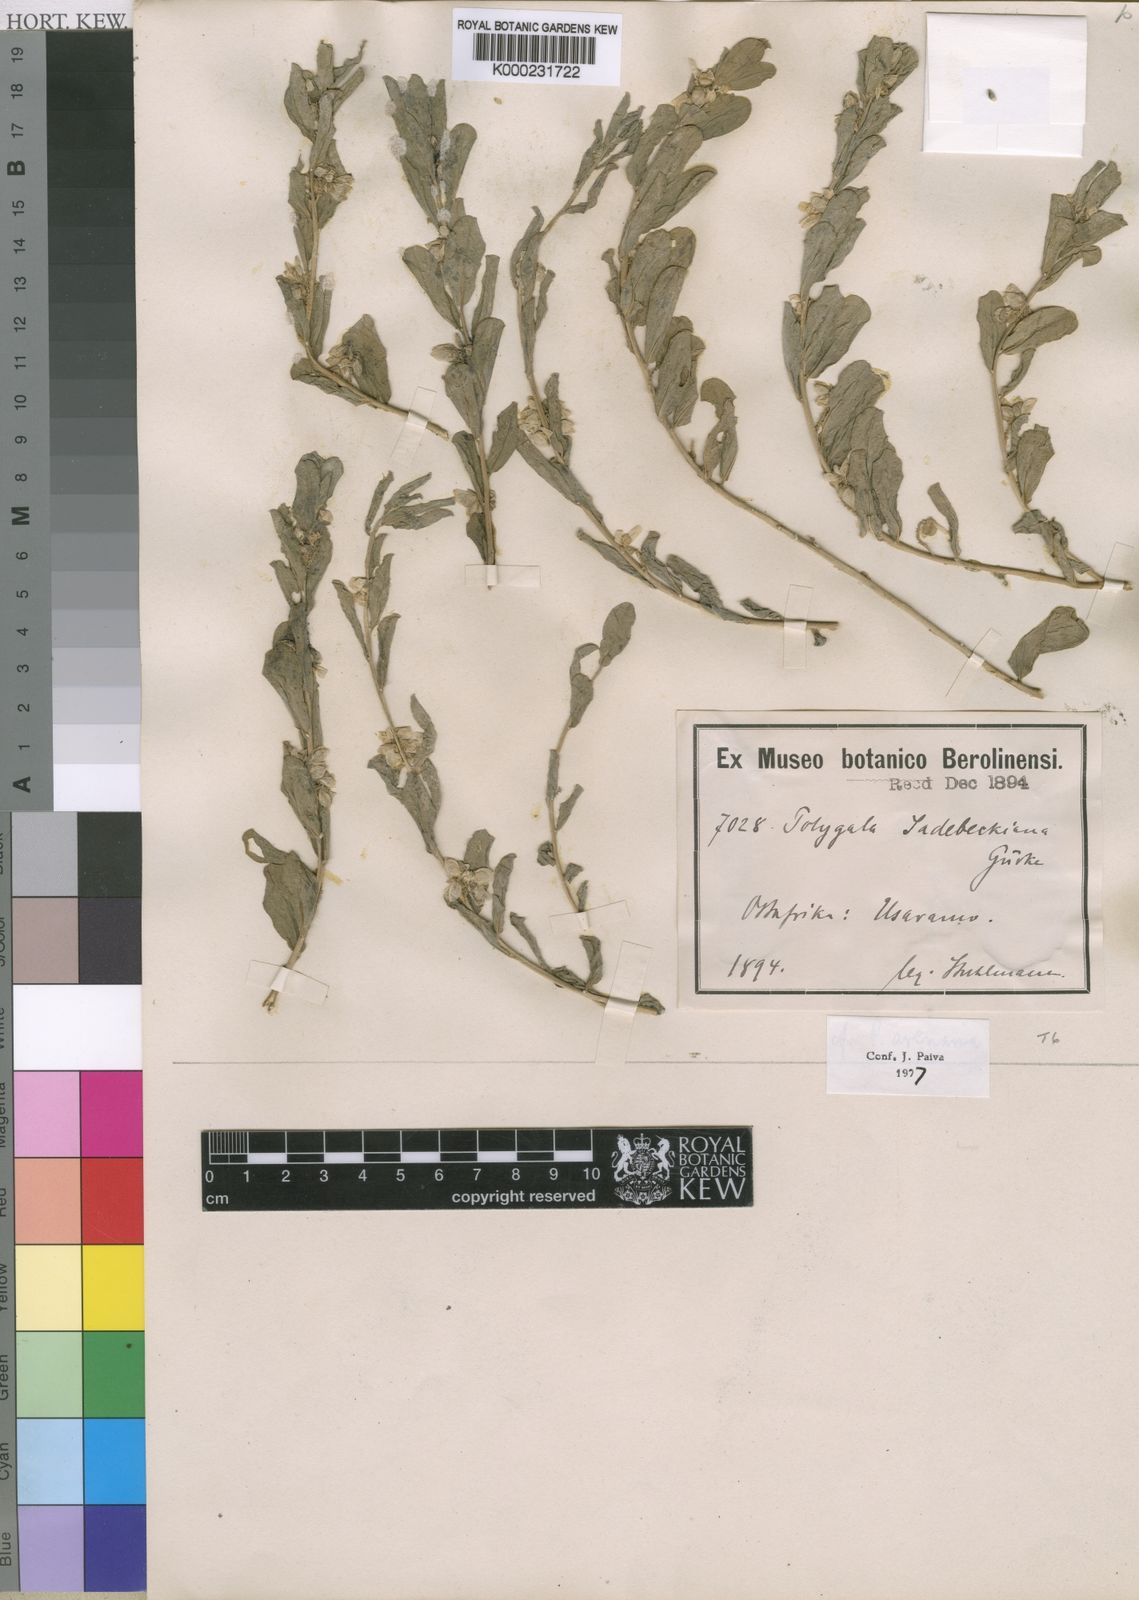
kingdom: Plantae
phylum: Tracheophyta
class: Magnoliopsida
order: Fabales
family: Polygalaceae
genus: Polygala
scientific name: Polygala
